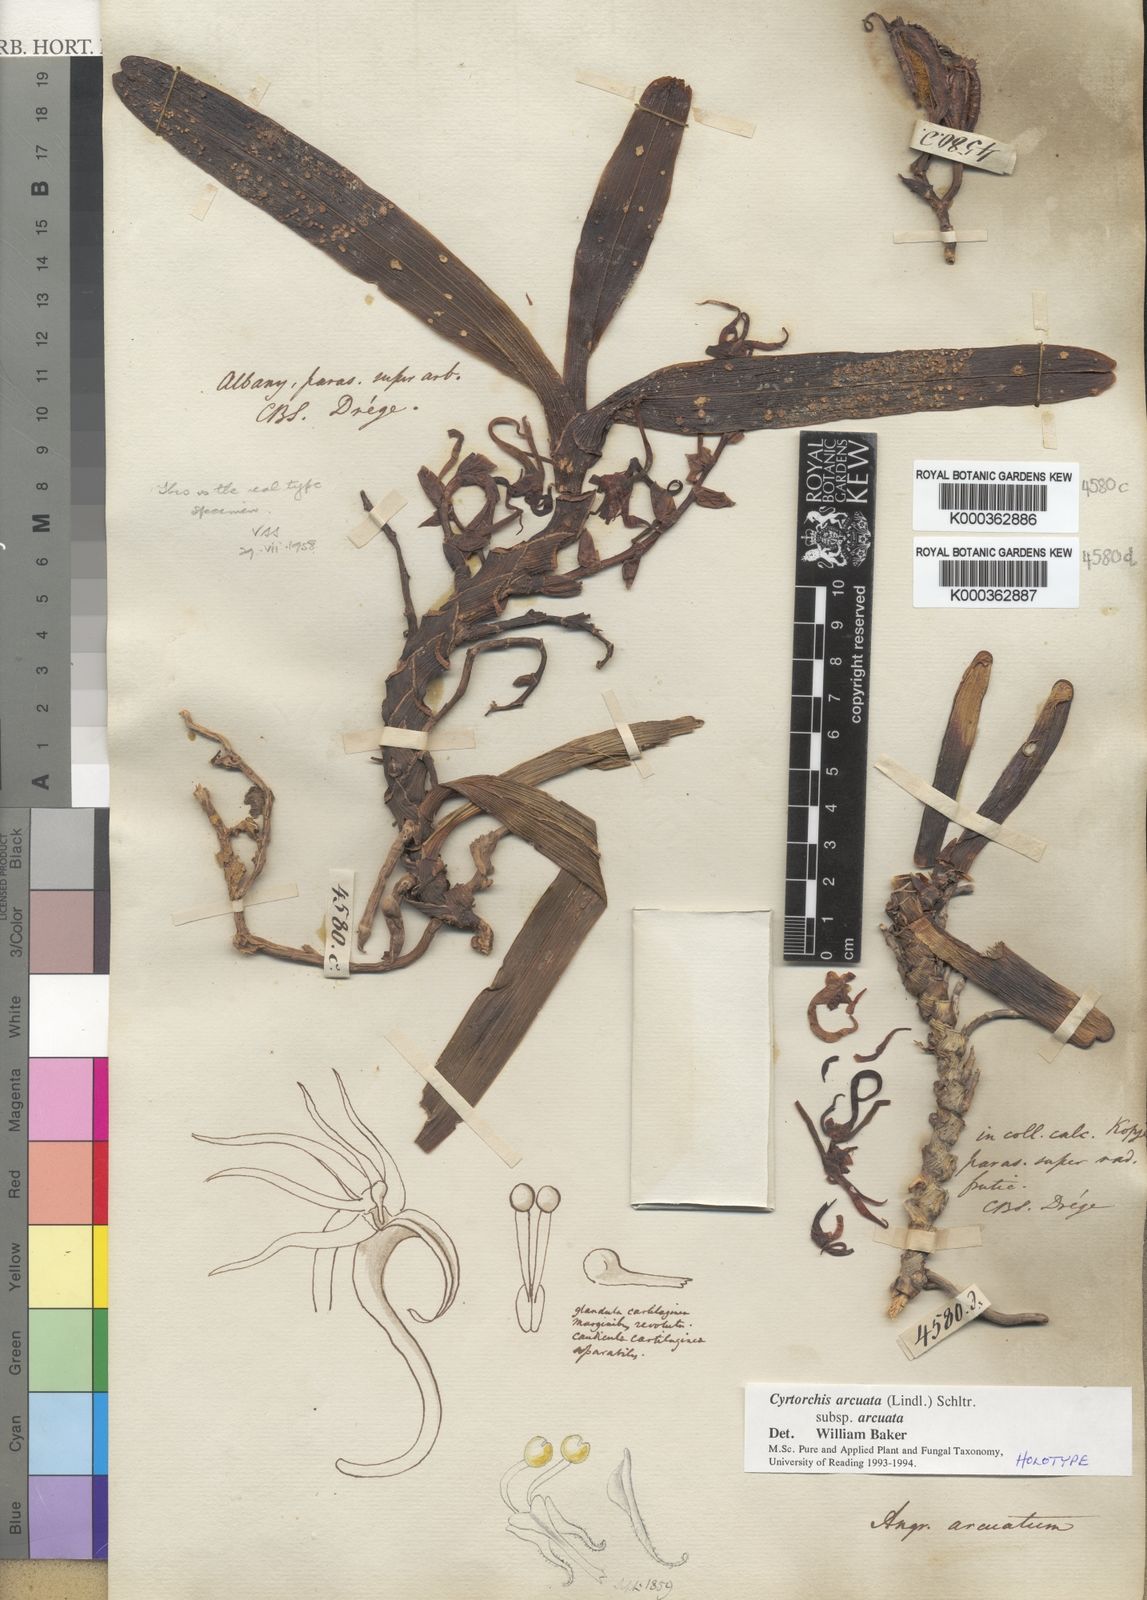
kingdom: Plantae
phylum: Tracheophyta
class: Liliopsida
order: Asparagales
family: Orchidaceae
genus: Cyrtorchis
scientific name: Cyrtorchis arcuata
